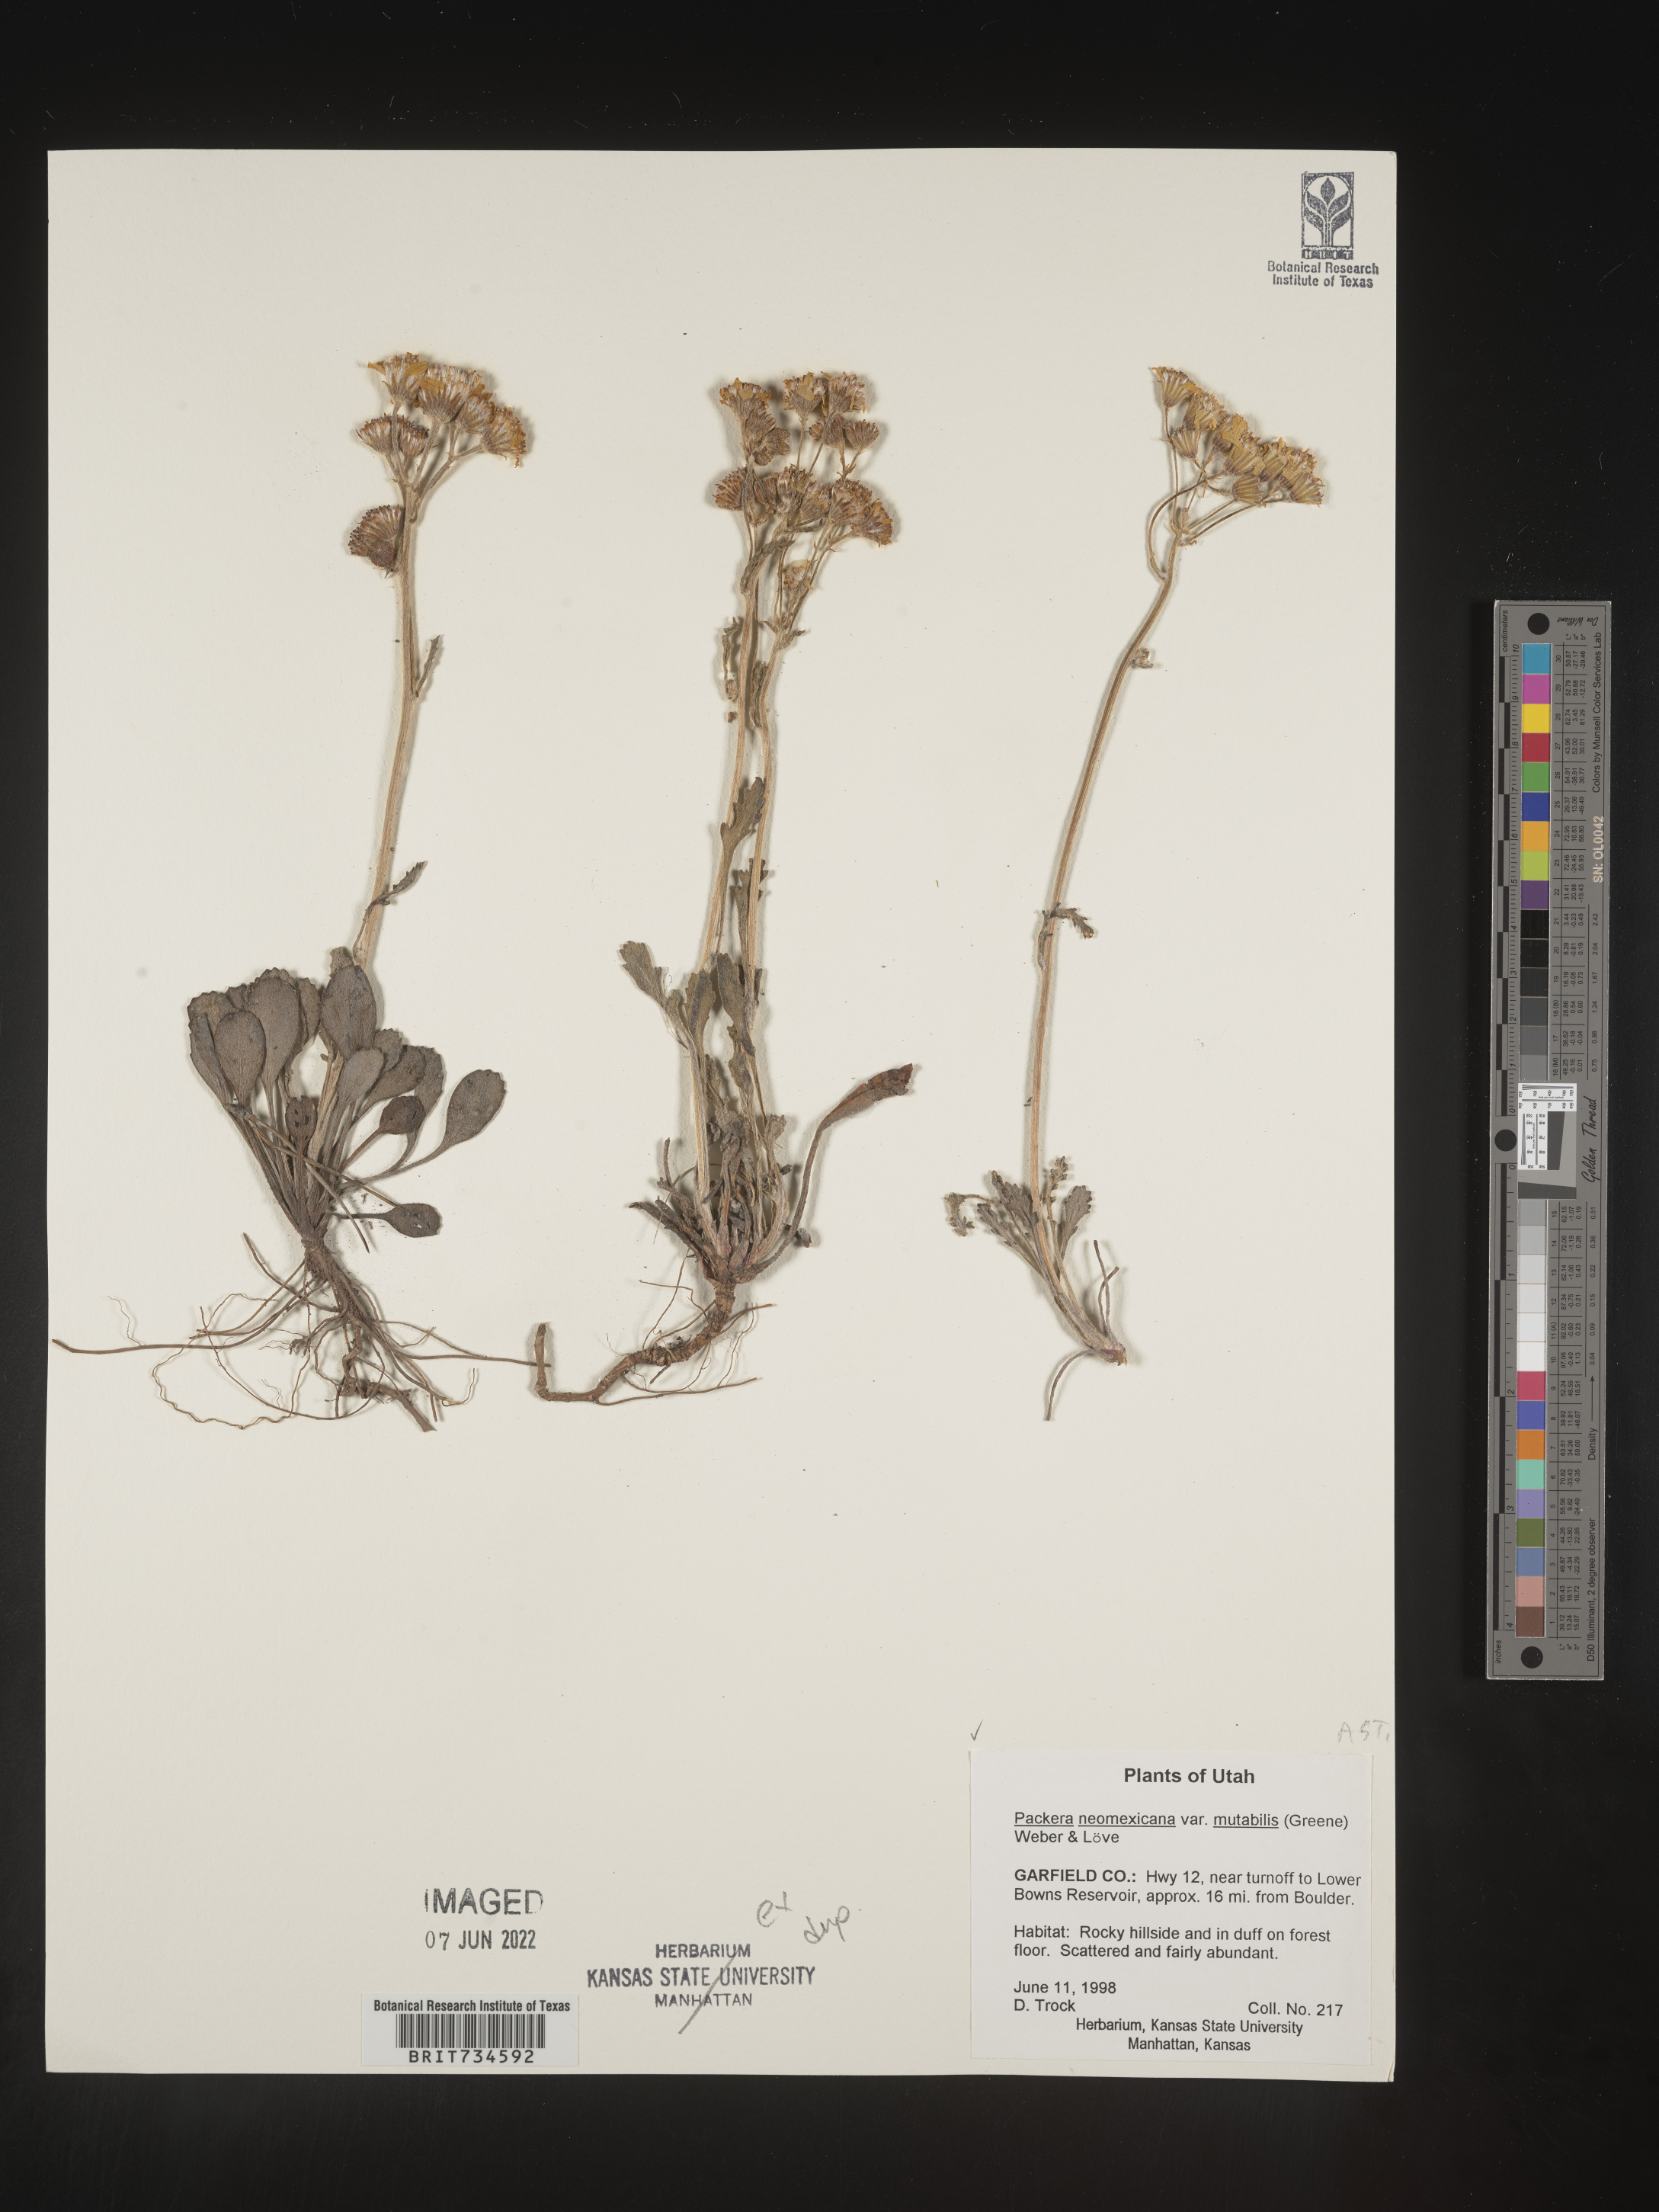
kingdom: Plantae
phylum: Tracheophyta
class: Magnoliopsida
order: Asterales
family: Asteraceae
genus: Packera
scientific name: Packera neomexicana
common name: New mexico butterweed
